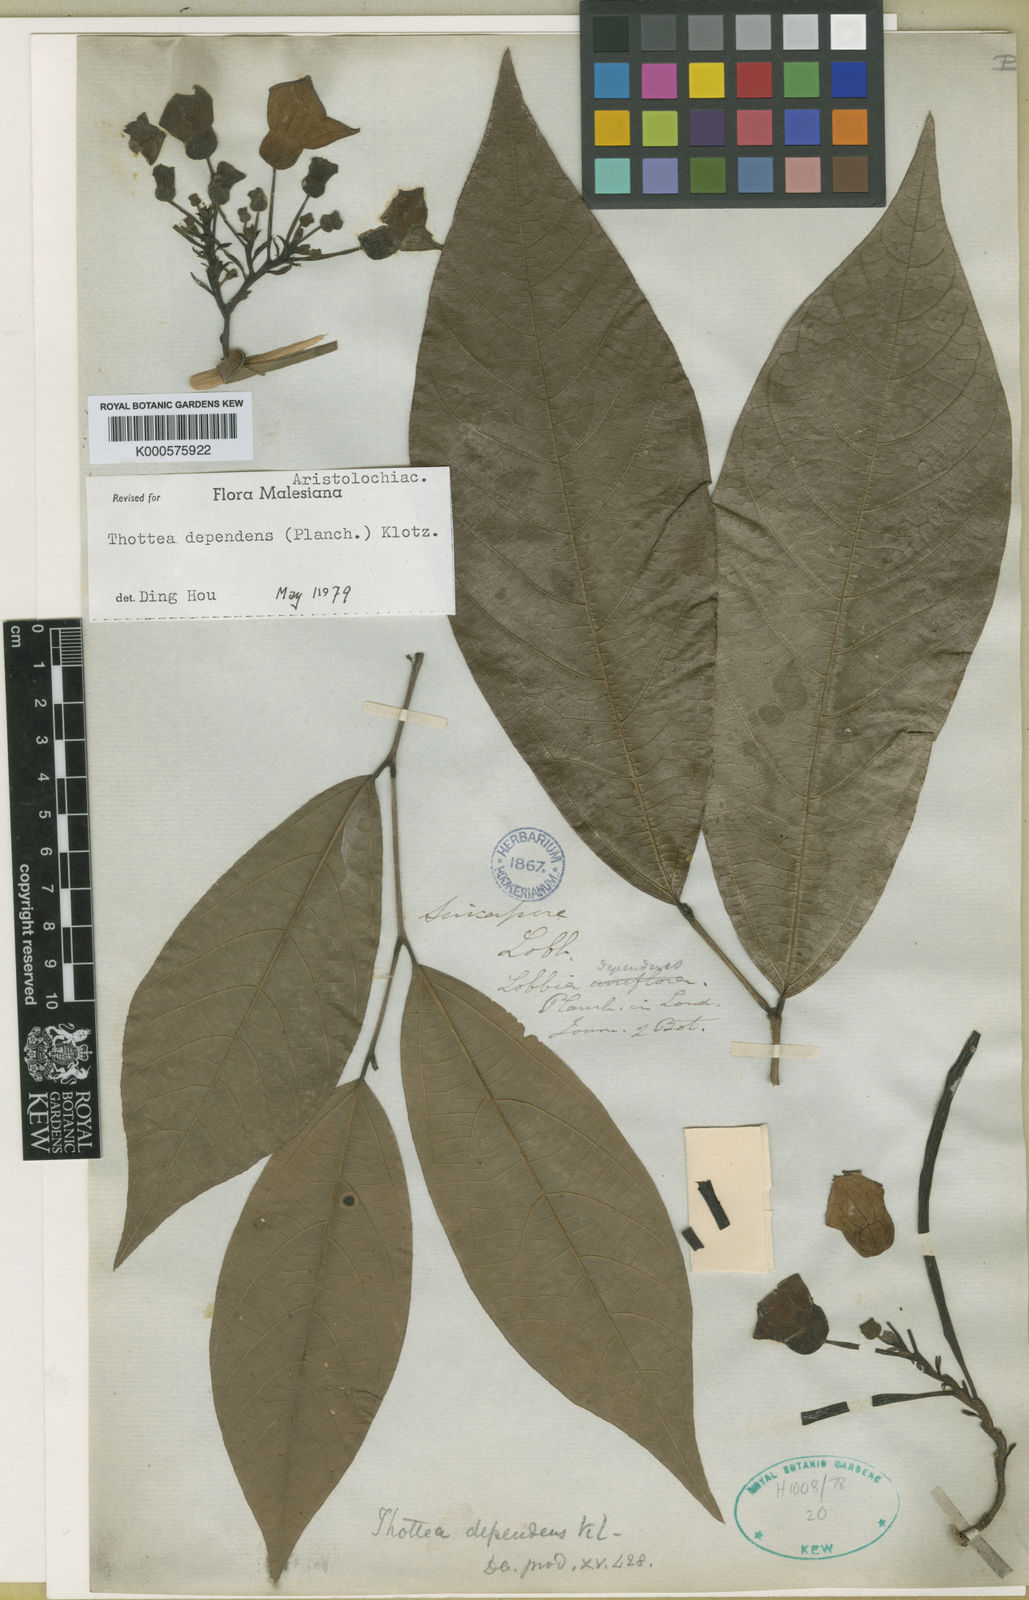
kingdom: Plantae
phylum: Tracheophyta
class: Magnoliopsida
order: Piperales
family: Aristolochiaceae
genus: Thottea
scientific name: Thottea dependens
